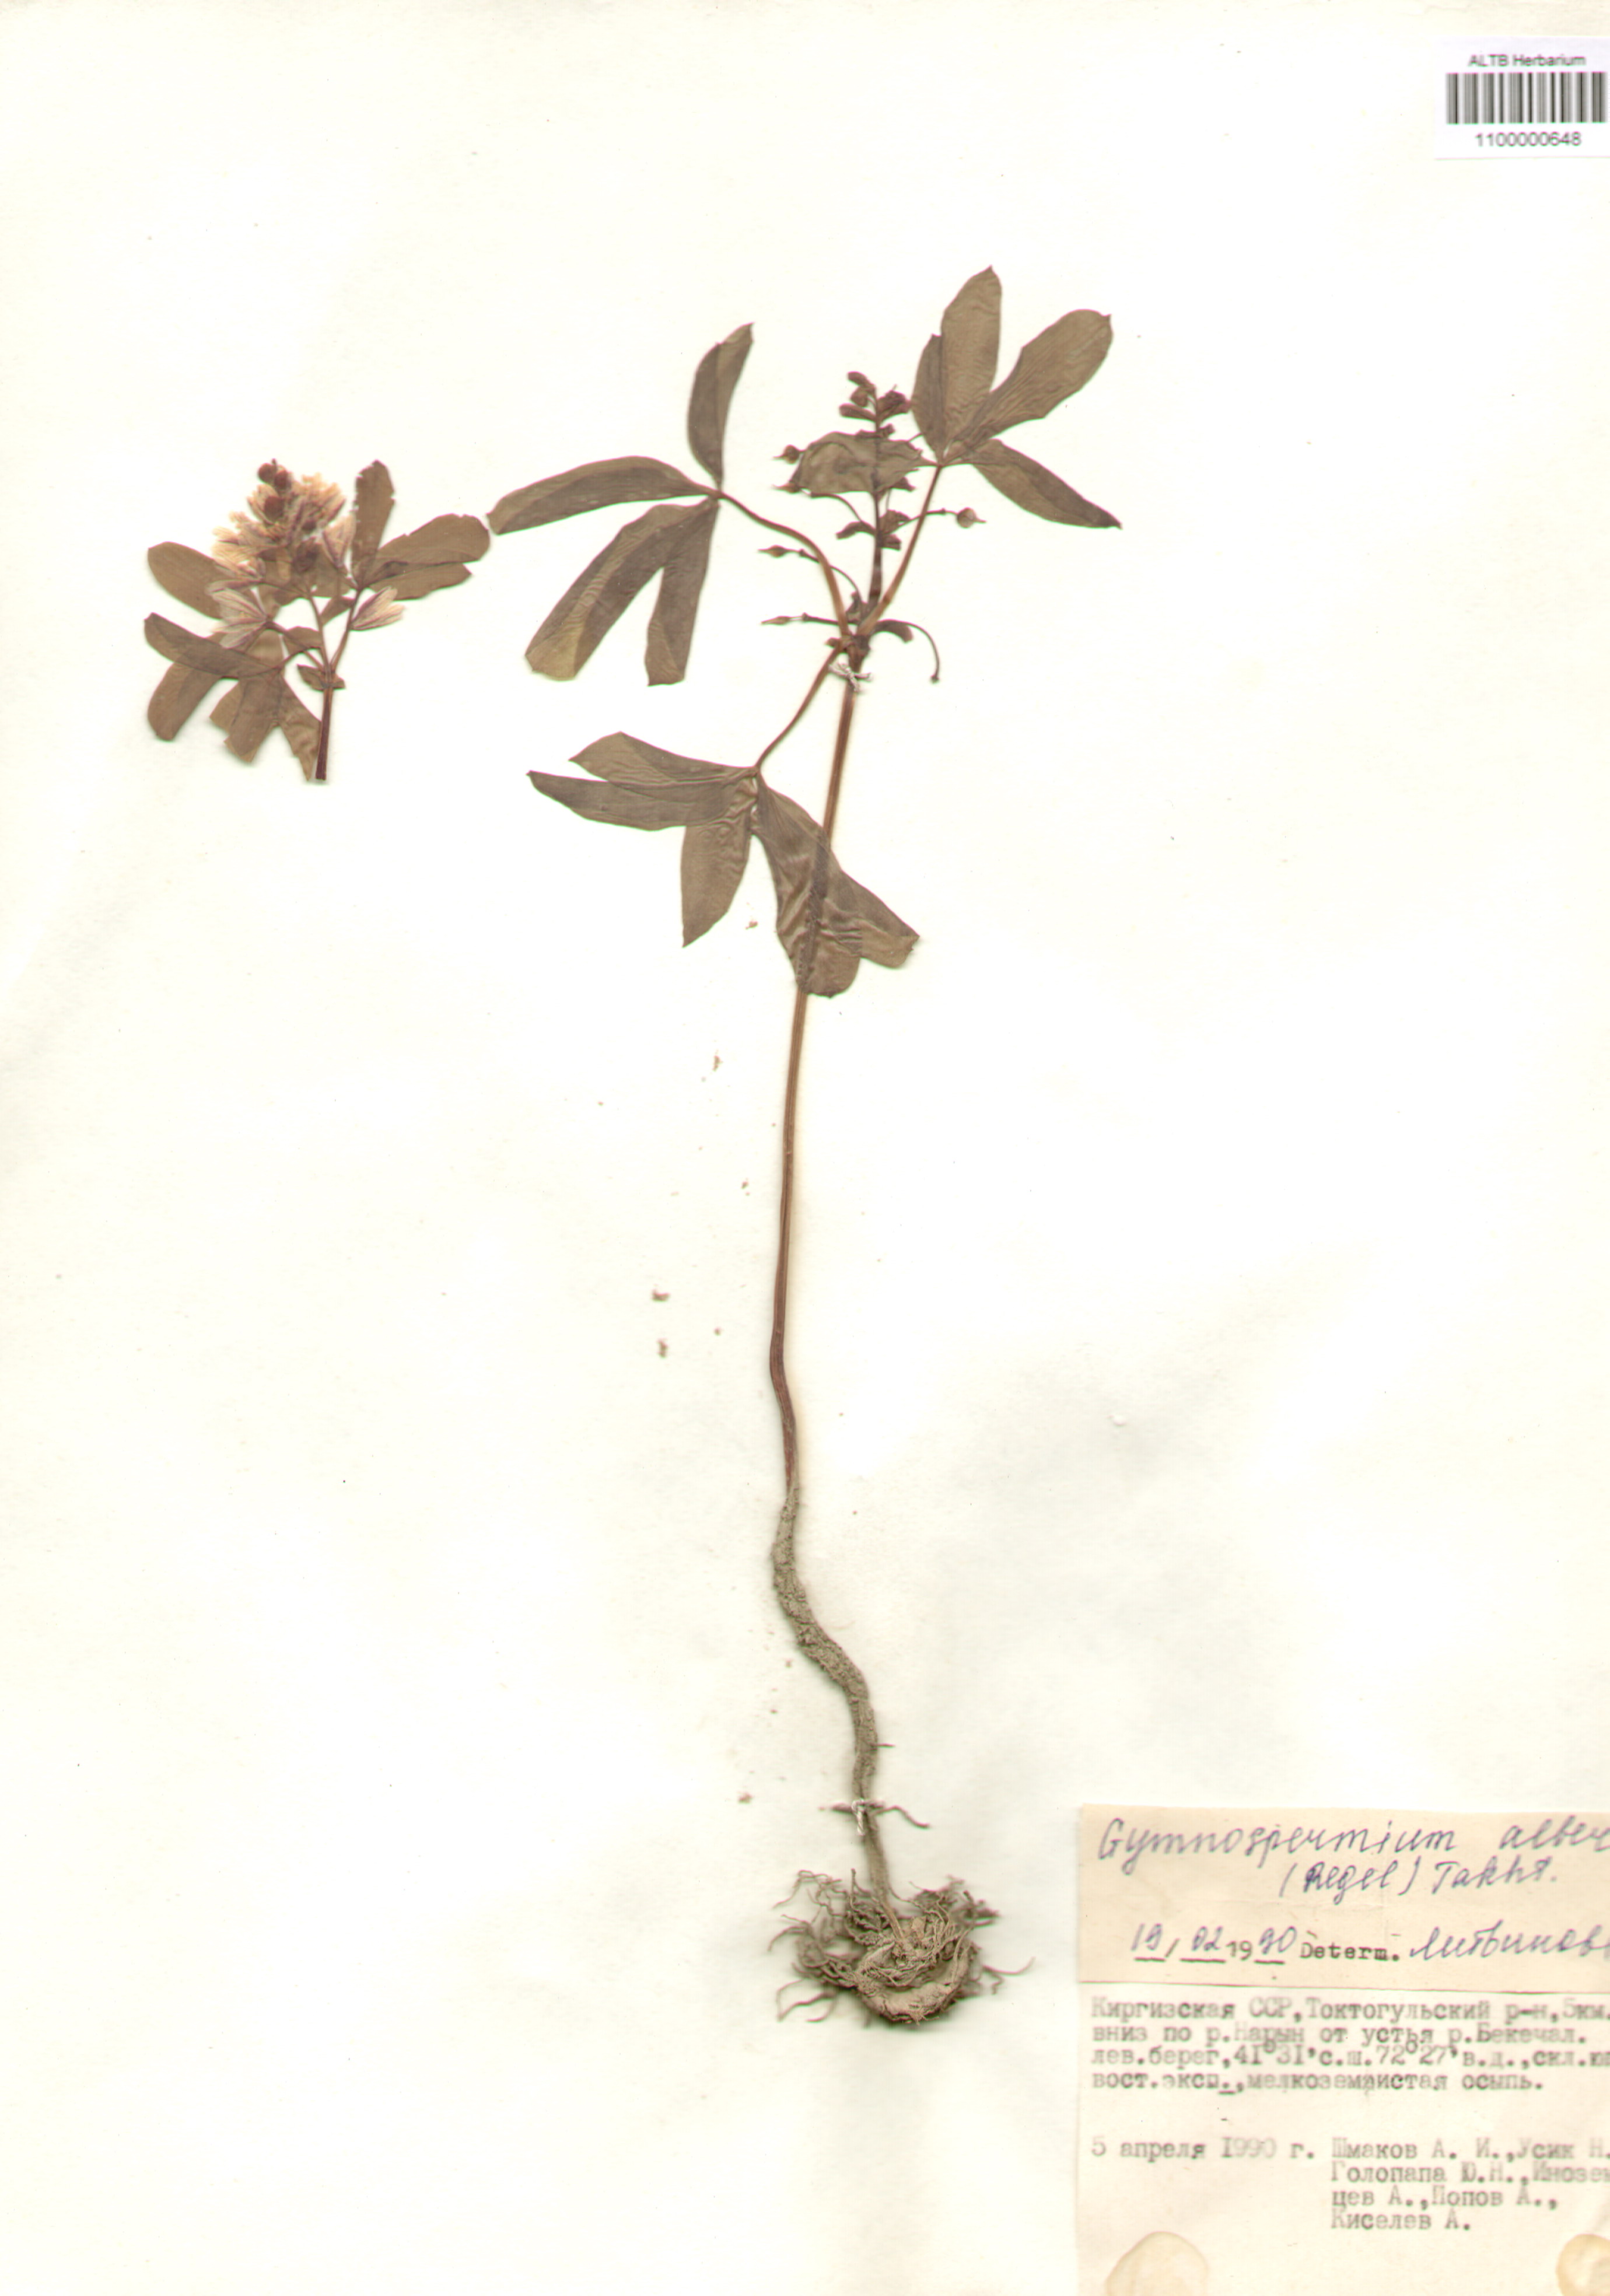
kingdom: Plantae
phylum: Tracheophyta
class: Magnoliopsida
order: Ranunculales
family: Berberidaceae
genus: Gymnospermium
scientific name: Gymnospermium alberti
